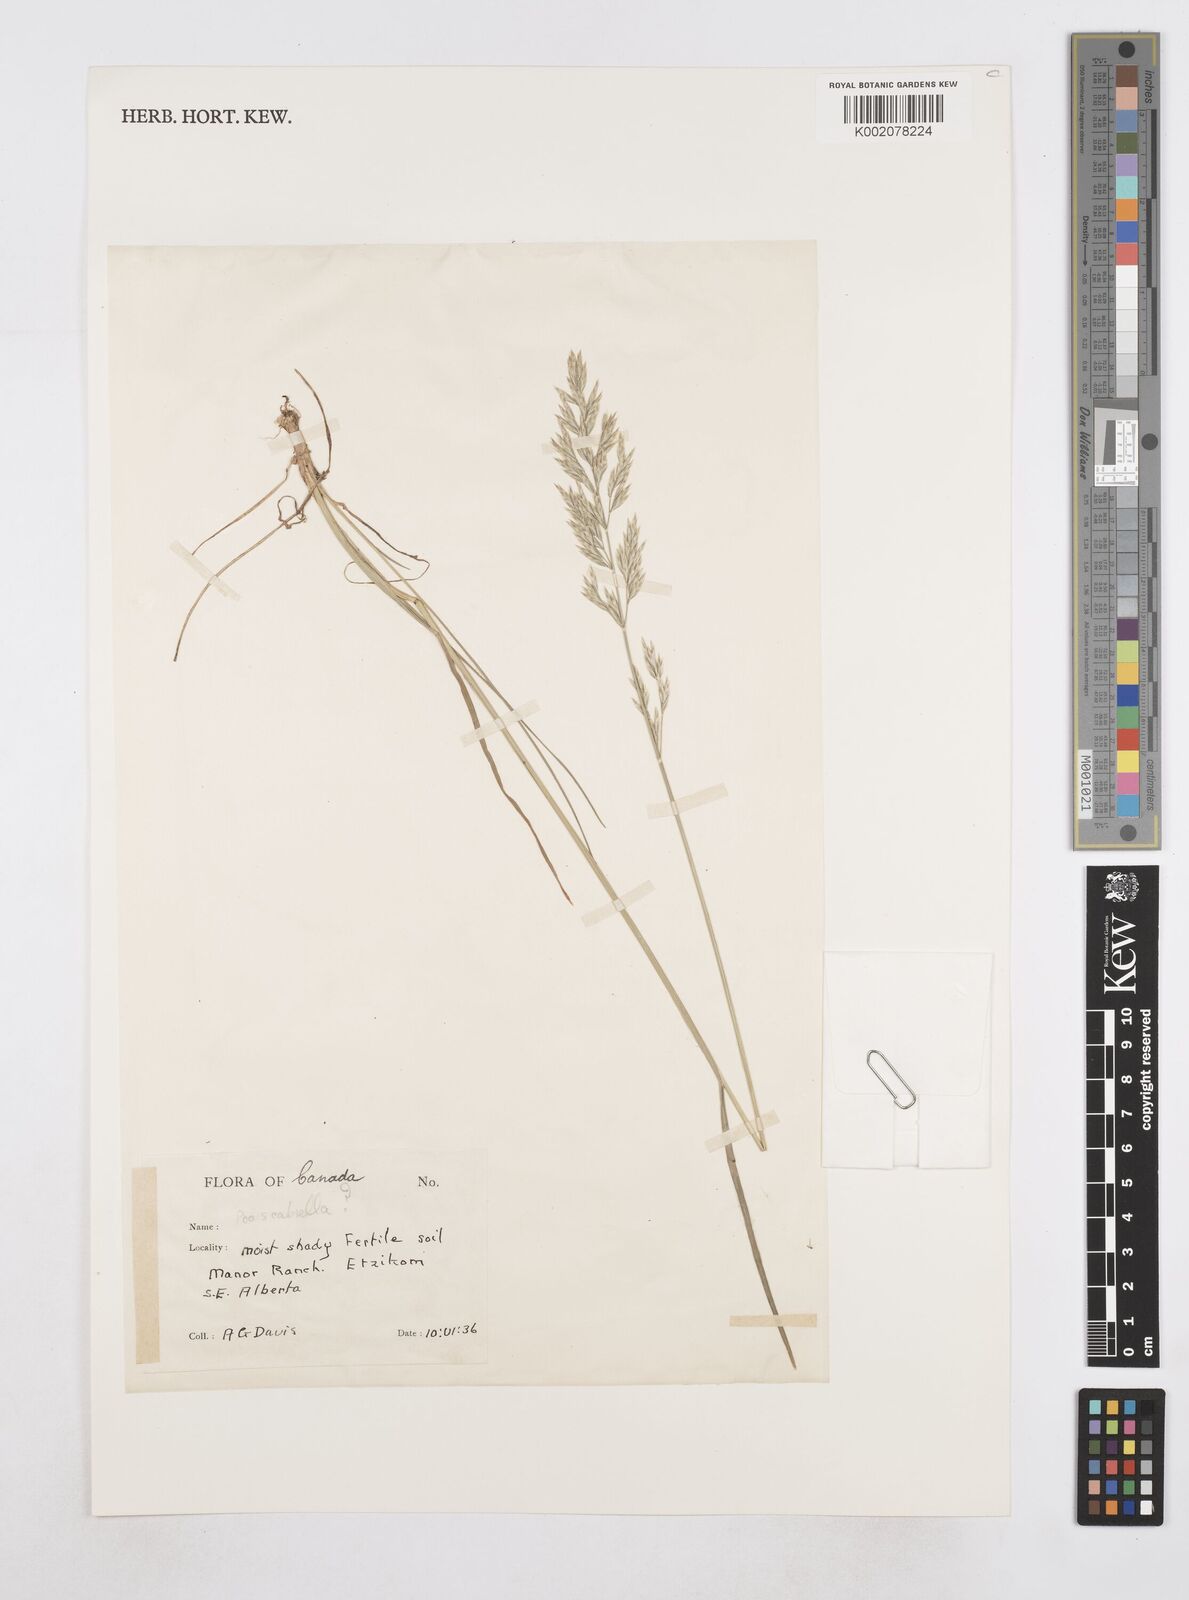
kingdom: Plantae
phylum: Tracheophyta
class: Liliopsida
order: Poales
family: Poaceae
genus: Poa
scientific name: Poa
